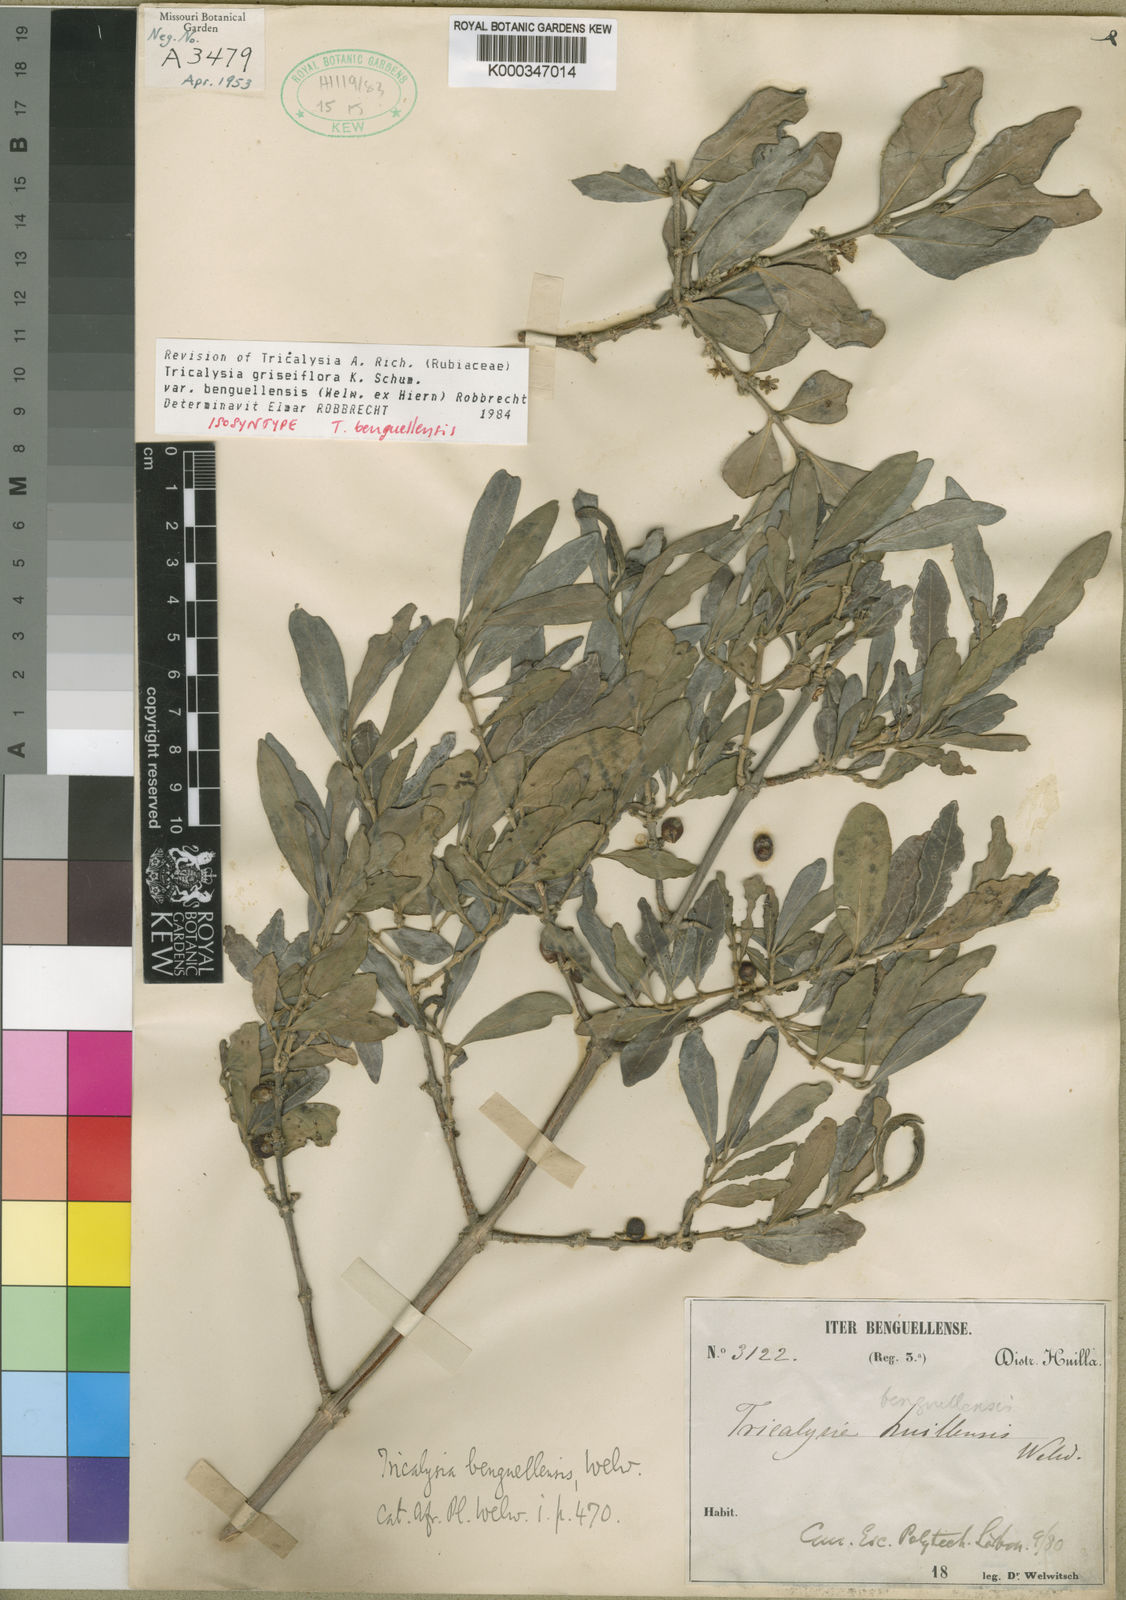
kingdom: Plantae
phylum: Tracheophyta
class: Magnoliopsida
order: Gentianales
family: Rubiaceae
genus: Tricalysia
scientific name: Tricalysia griseiflora
